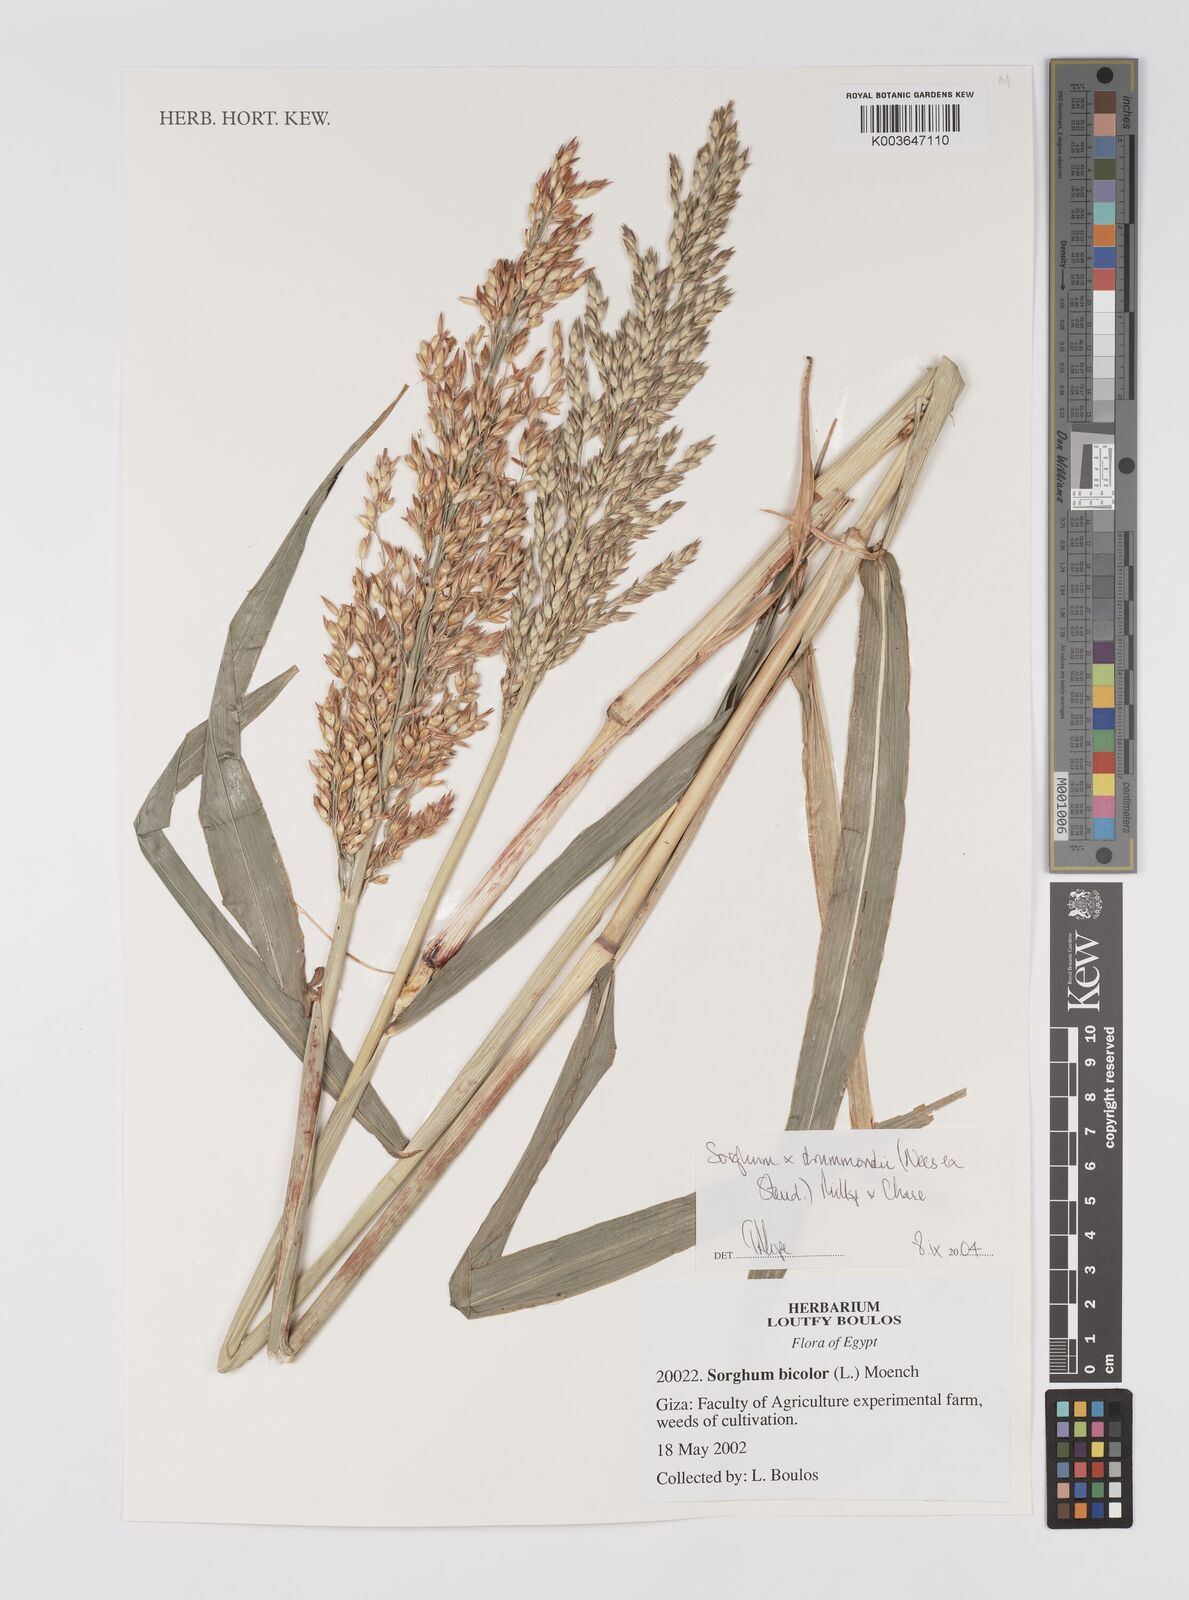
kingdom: Plantae
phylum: Tracheophyta
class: Liliopsida
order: Poales
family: Poaceae
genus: Sorghum
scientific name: Sorghum drummondii
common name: Sudangrass
